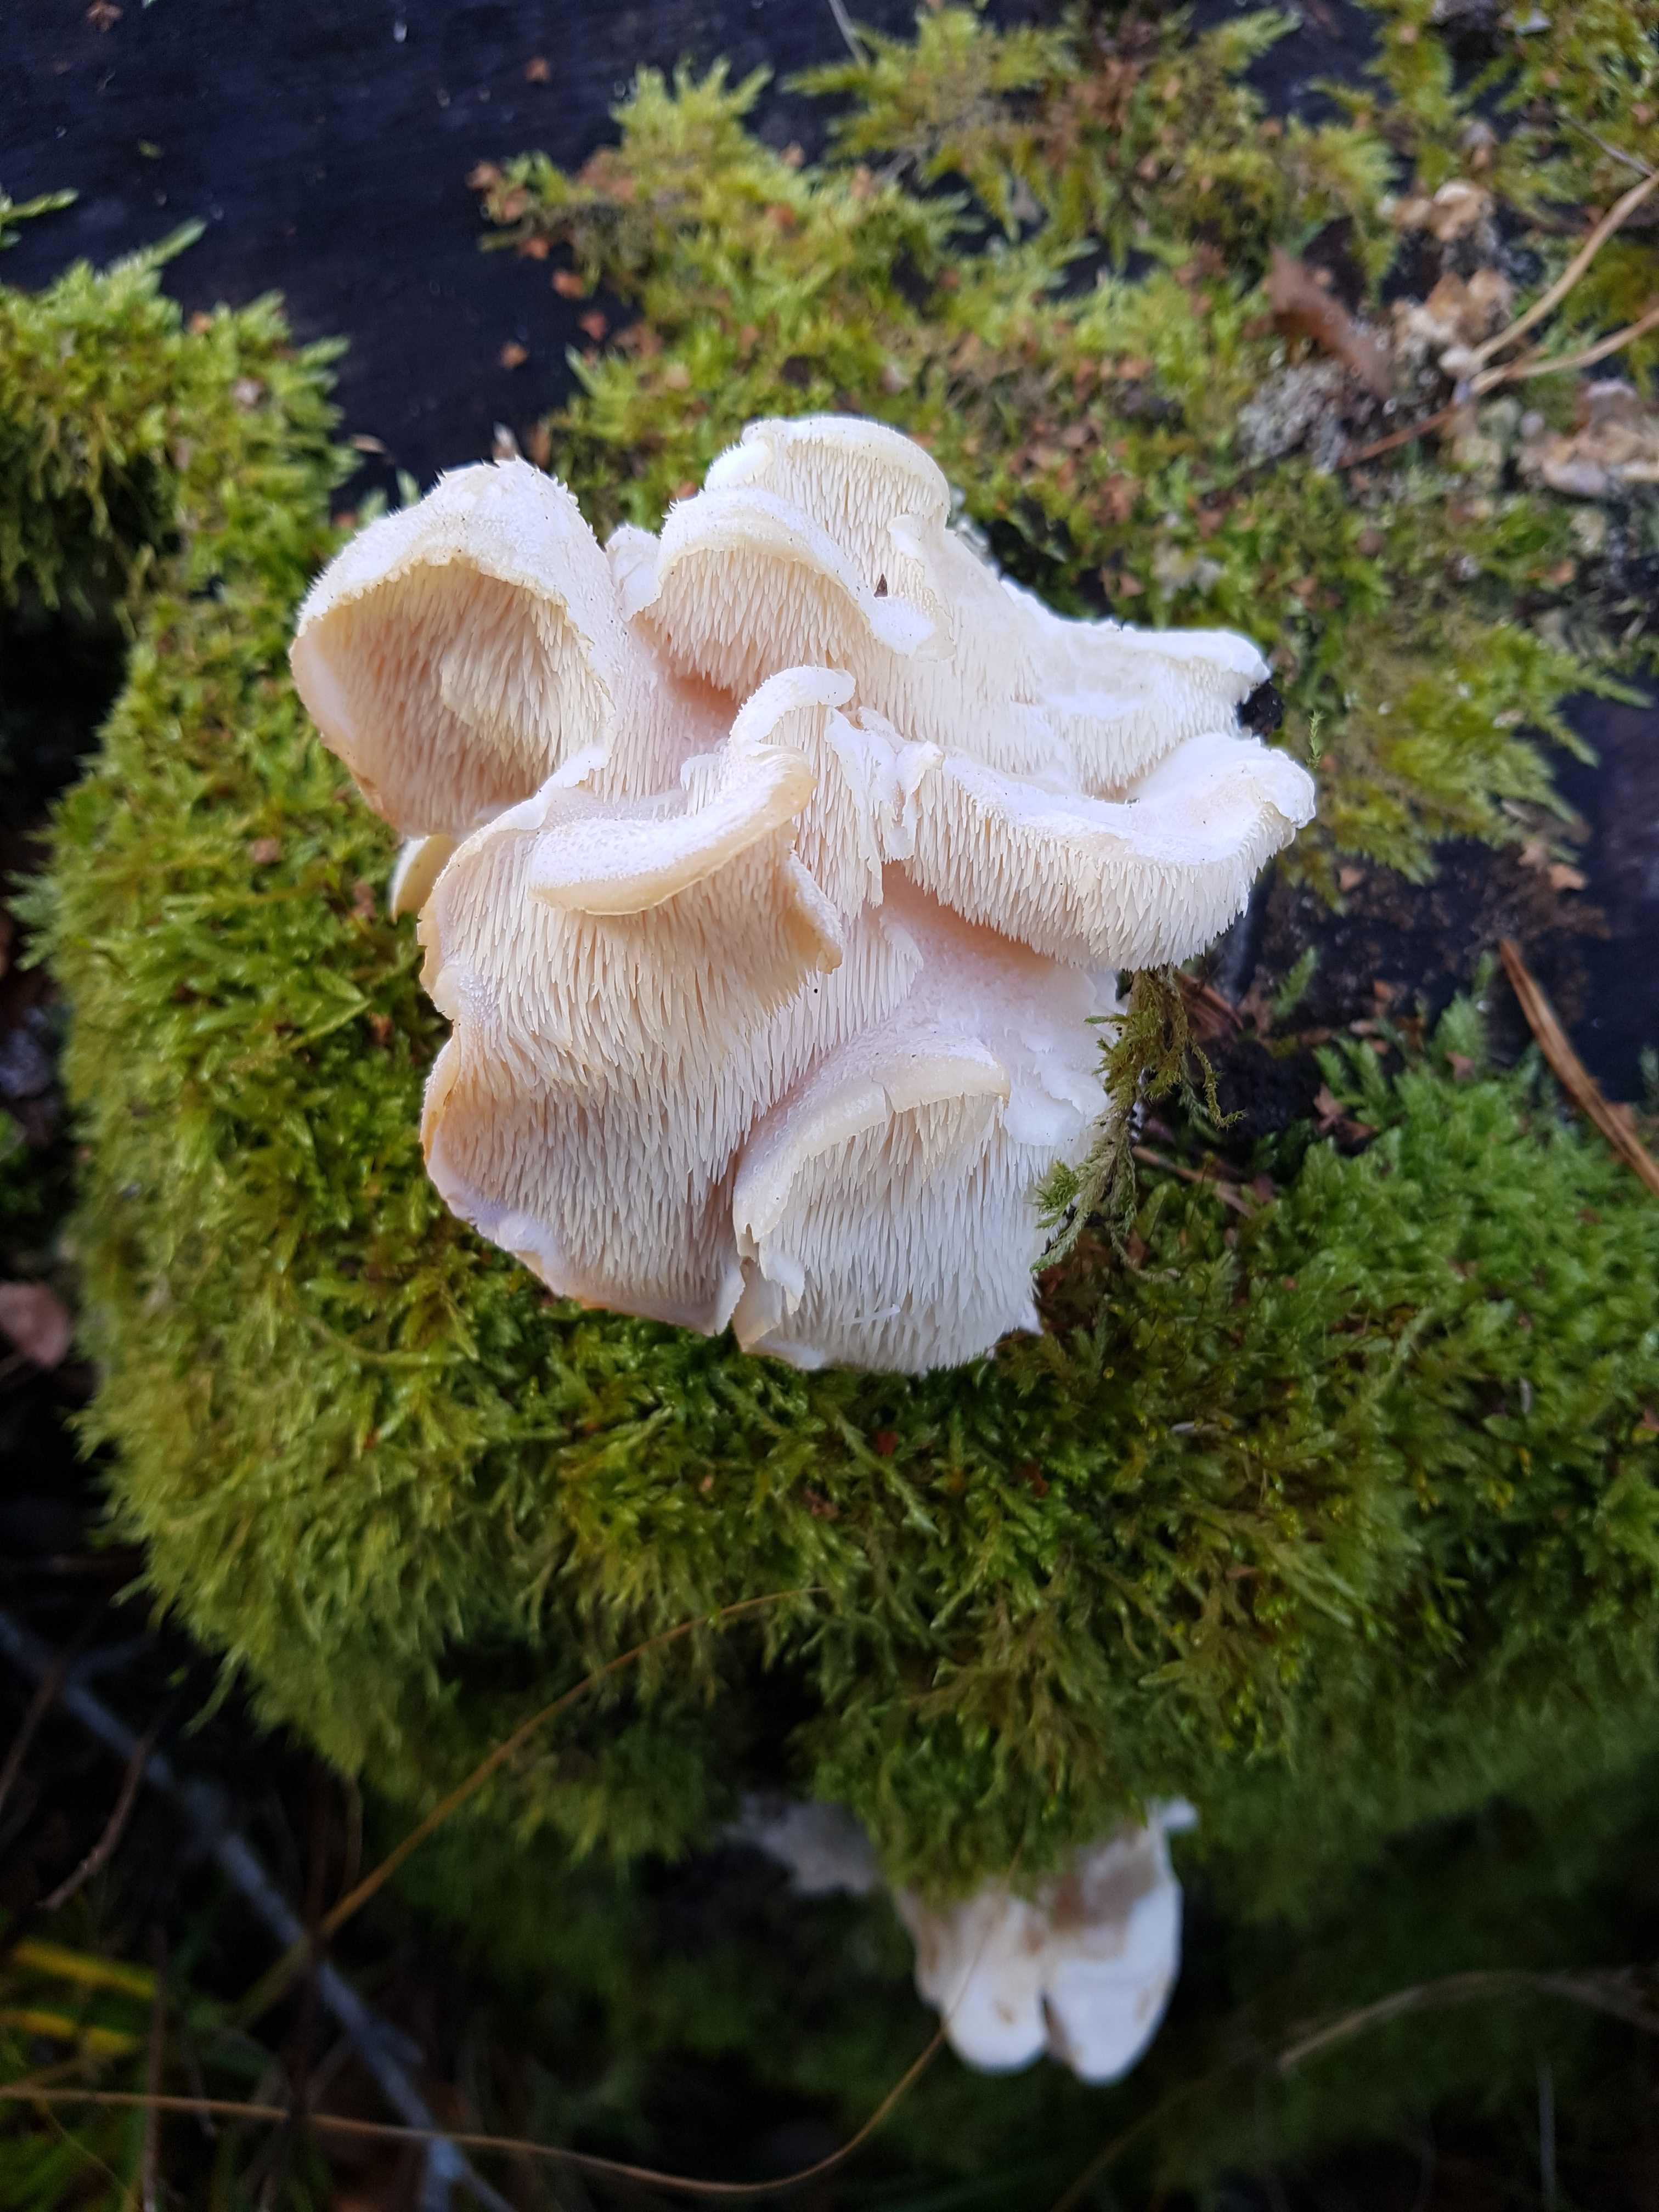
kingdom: Fungi
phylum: Basidiomycota
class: Agaricomycetes
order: Russulales
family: Hericiaceae
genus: Hericium
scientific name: Hericium cirrhatum
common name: børstepigsvamp
